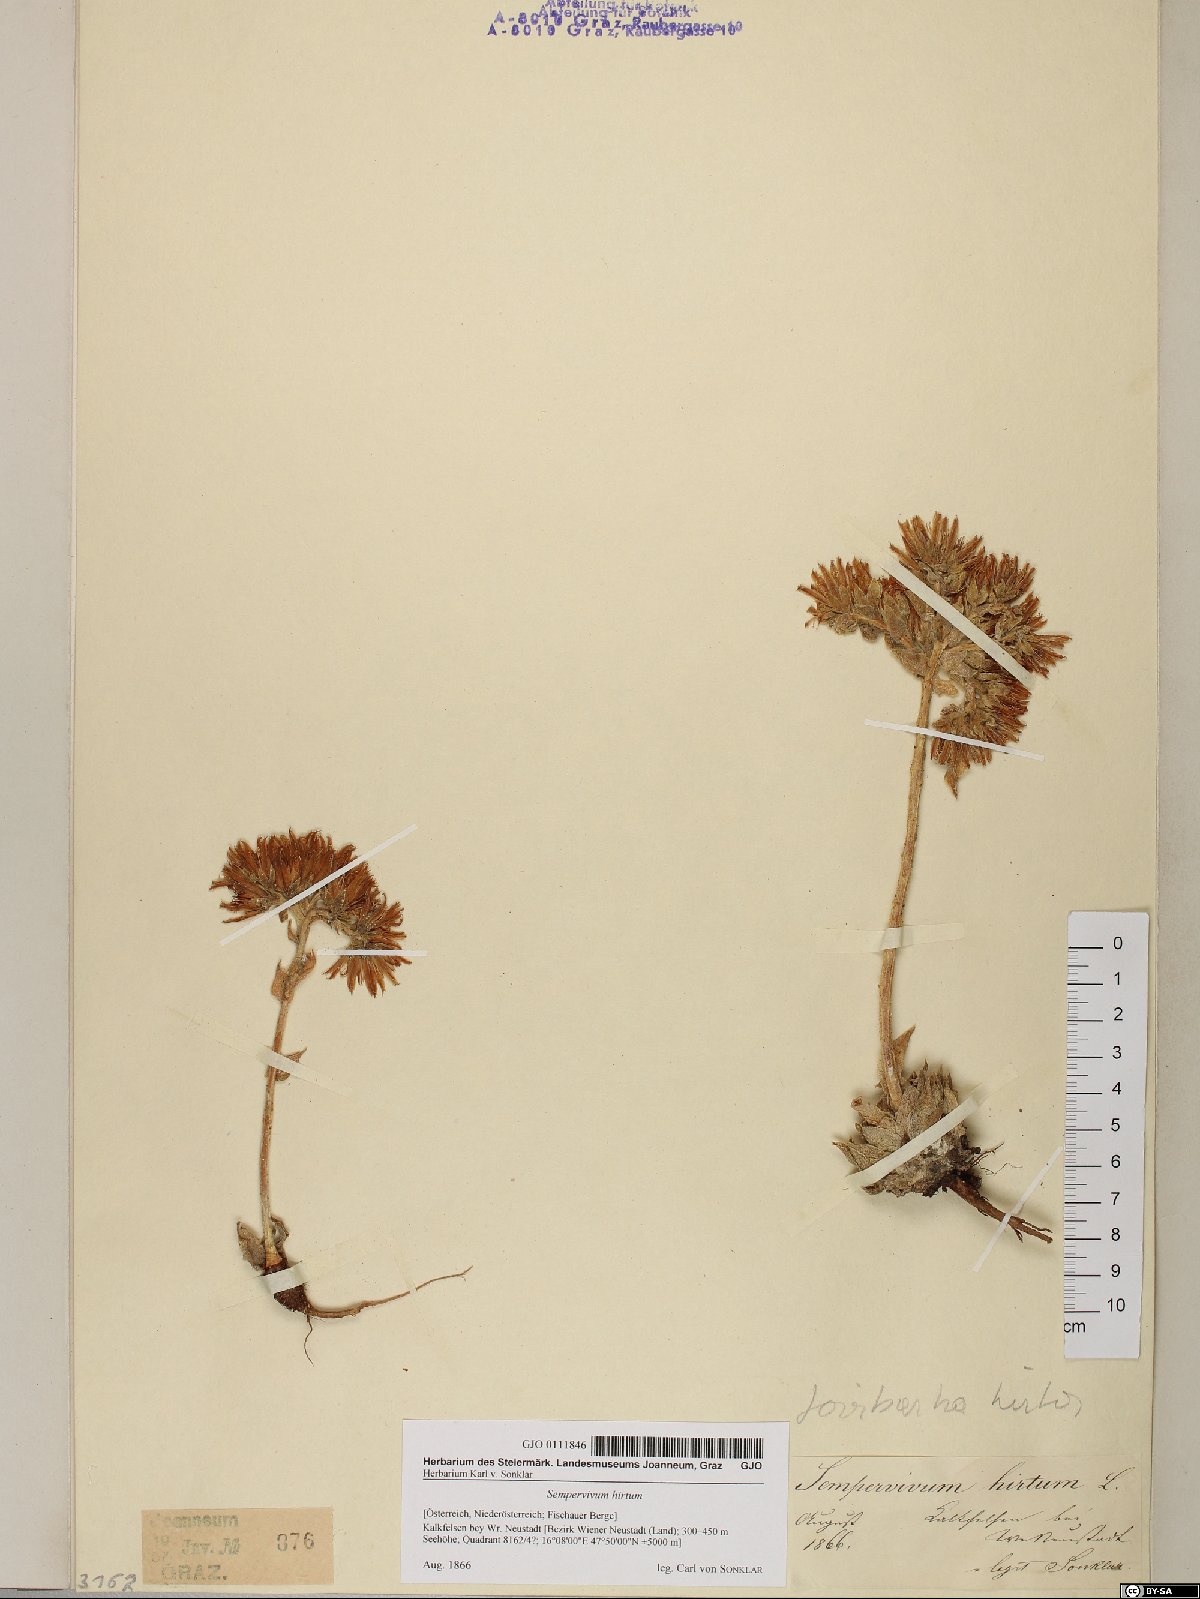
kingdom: Plantae
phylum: Tracheophyta
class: Magnoliopsida
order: Saxifragales
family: Crassulaceae
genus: Sempervivum
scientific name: Sempervivum globiferum
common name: Rolling hen-and-chicks
